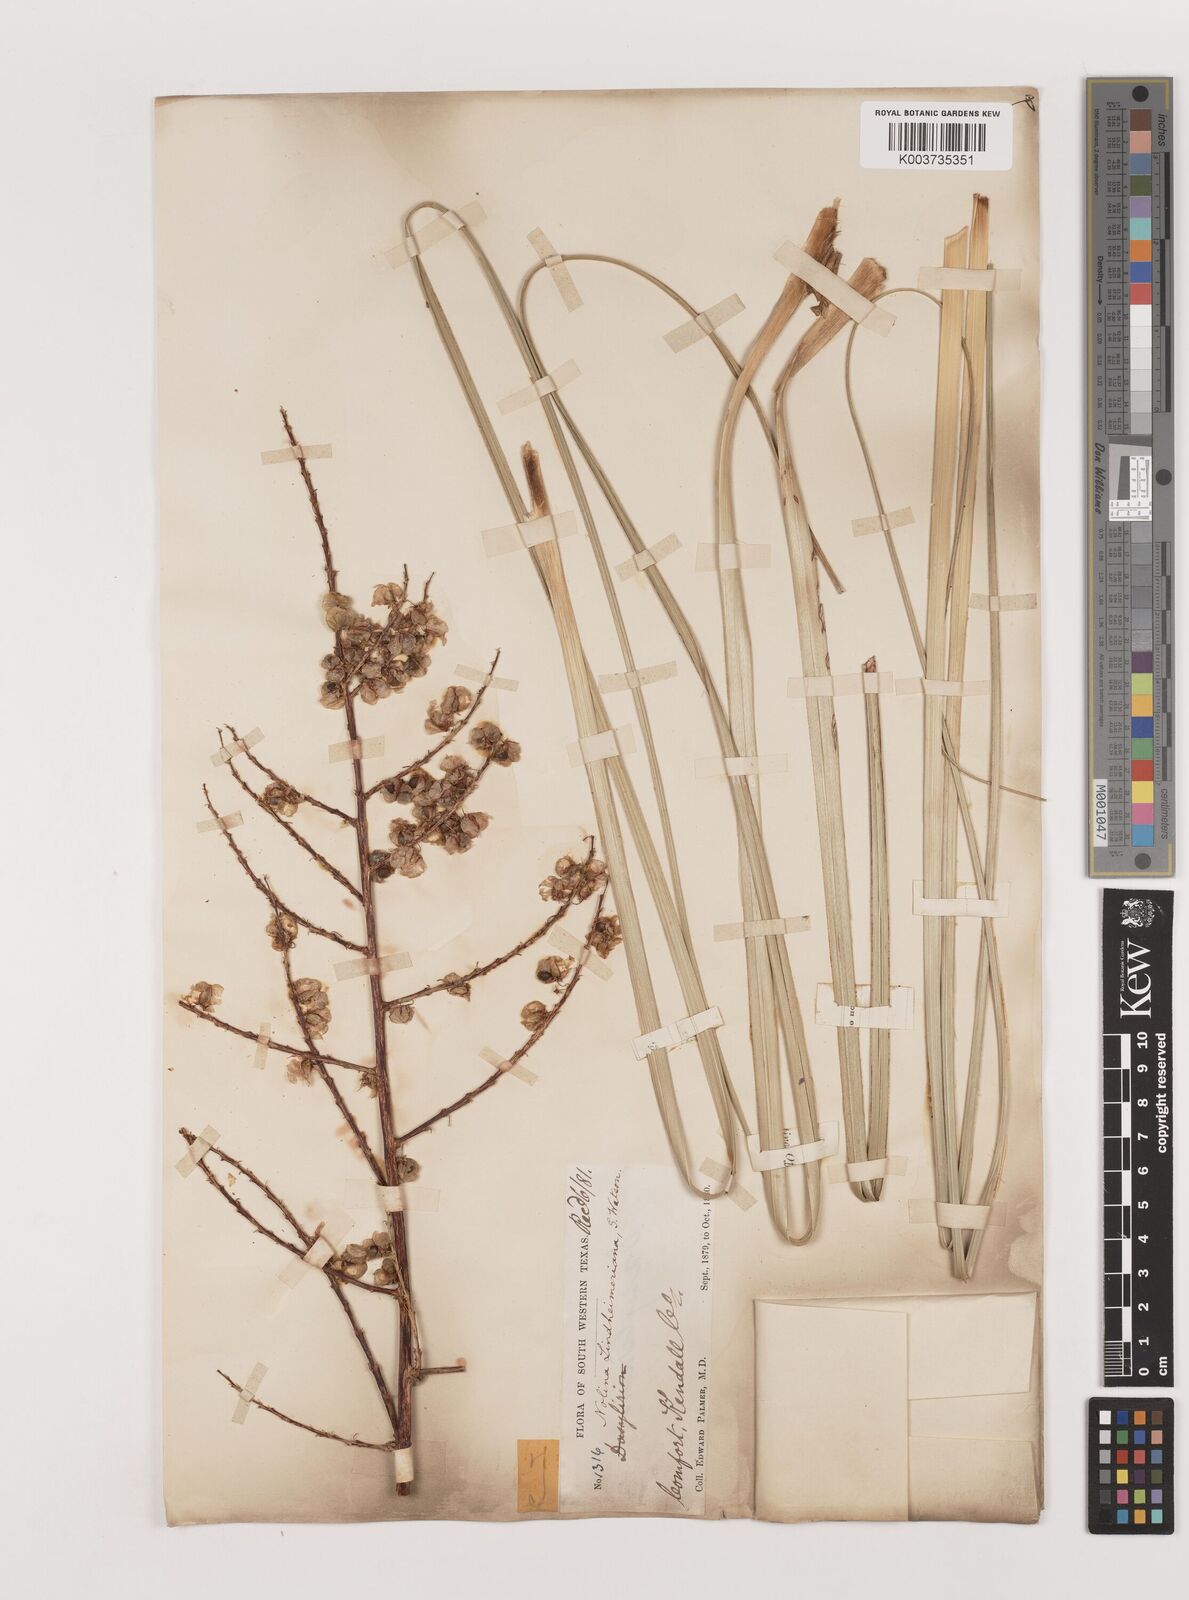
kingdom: Plantae
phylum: Tracheophyta
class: Liliopsida
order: Asparagales
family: Asparagaceae
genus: Nolina
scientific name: Nolina lindheimeriana
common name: Lindheimer's bear-grass
